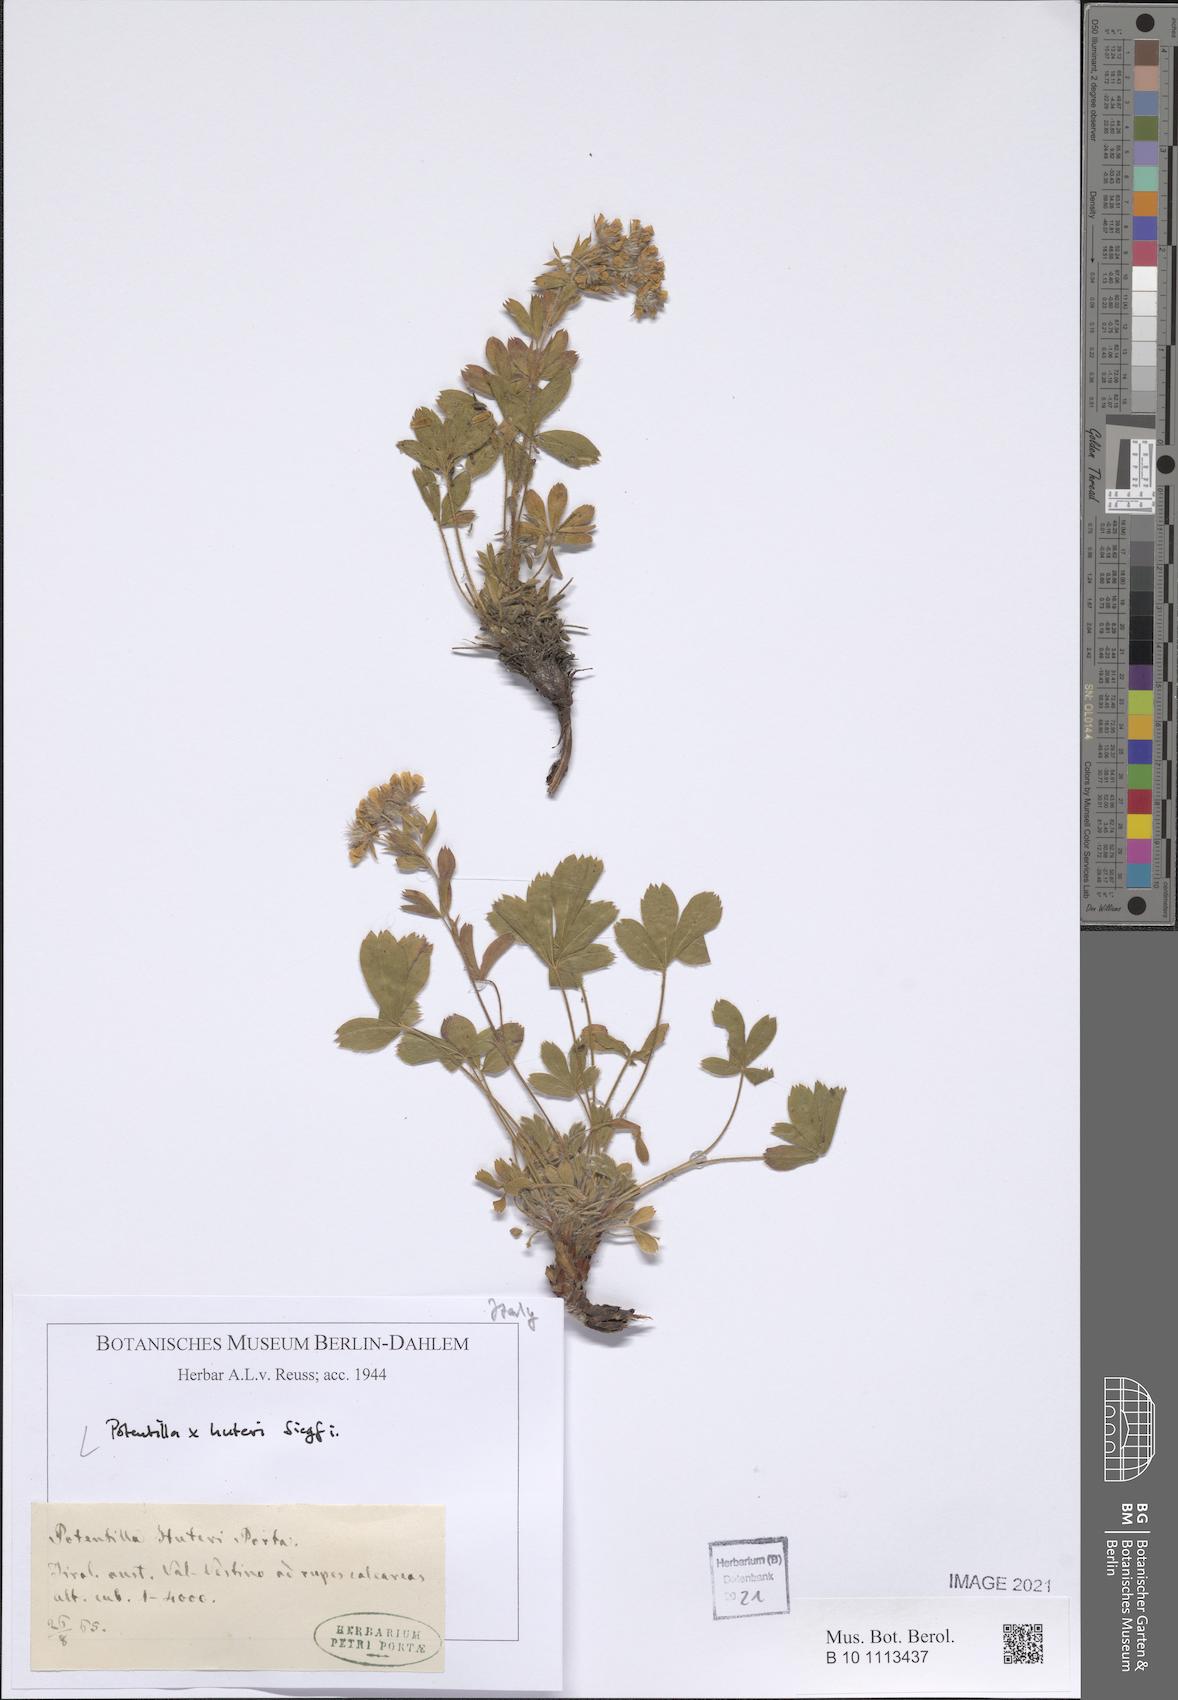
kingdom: Plantae
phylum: Tracheophyta
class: Magnoliopsida
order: Rosales
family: Rosaceae
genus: Potentilla
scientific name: Potentilla coryletii
